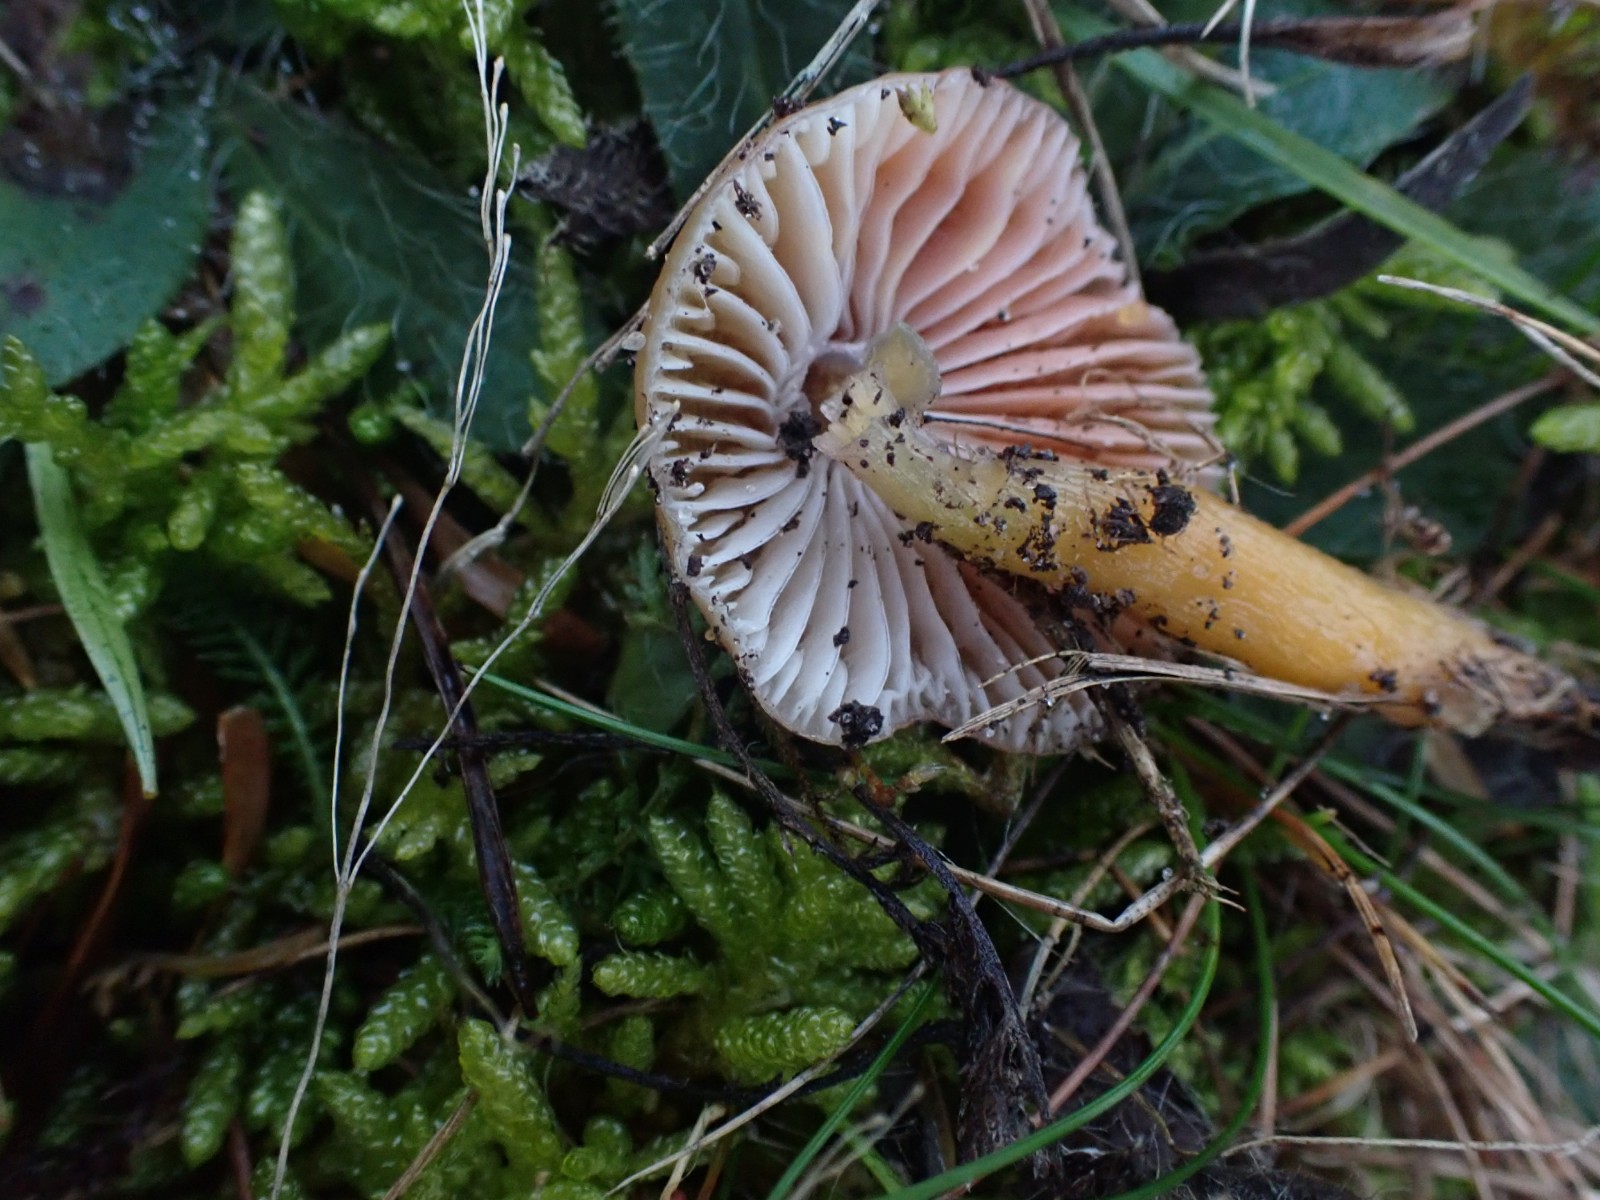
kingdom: Fungi
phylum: Basidiomycota
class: Agaricomycetes
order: Agaricales
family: Hygrophoraceae
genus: Gliophorus
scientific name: Gliophorus laetus
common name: brusk-vokshat
